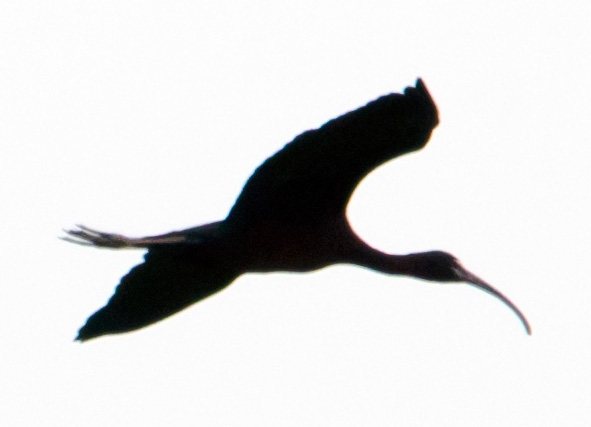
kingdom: Animalia
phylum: Chordata
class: Aves
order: Pelecaniformes
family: Threskiornithidae
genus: Plegadis
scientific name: Plegadis falcinellus
